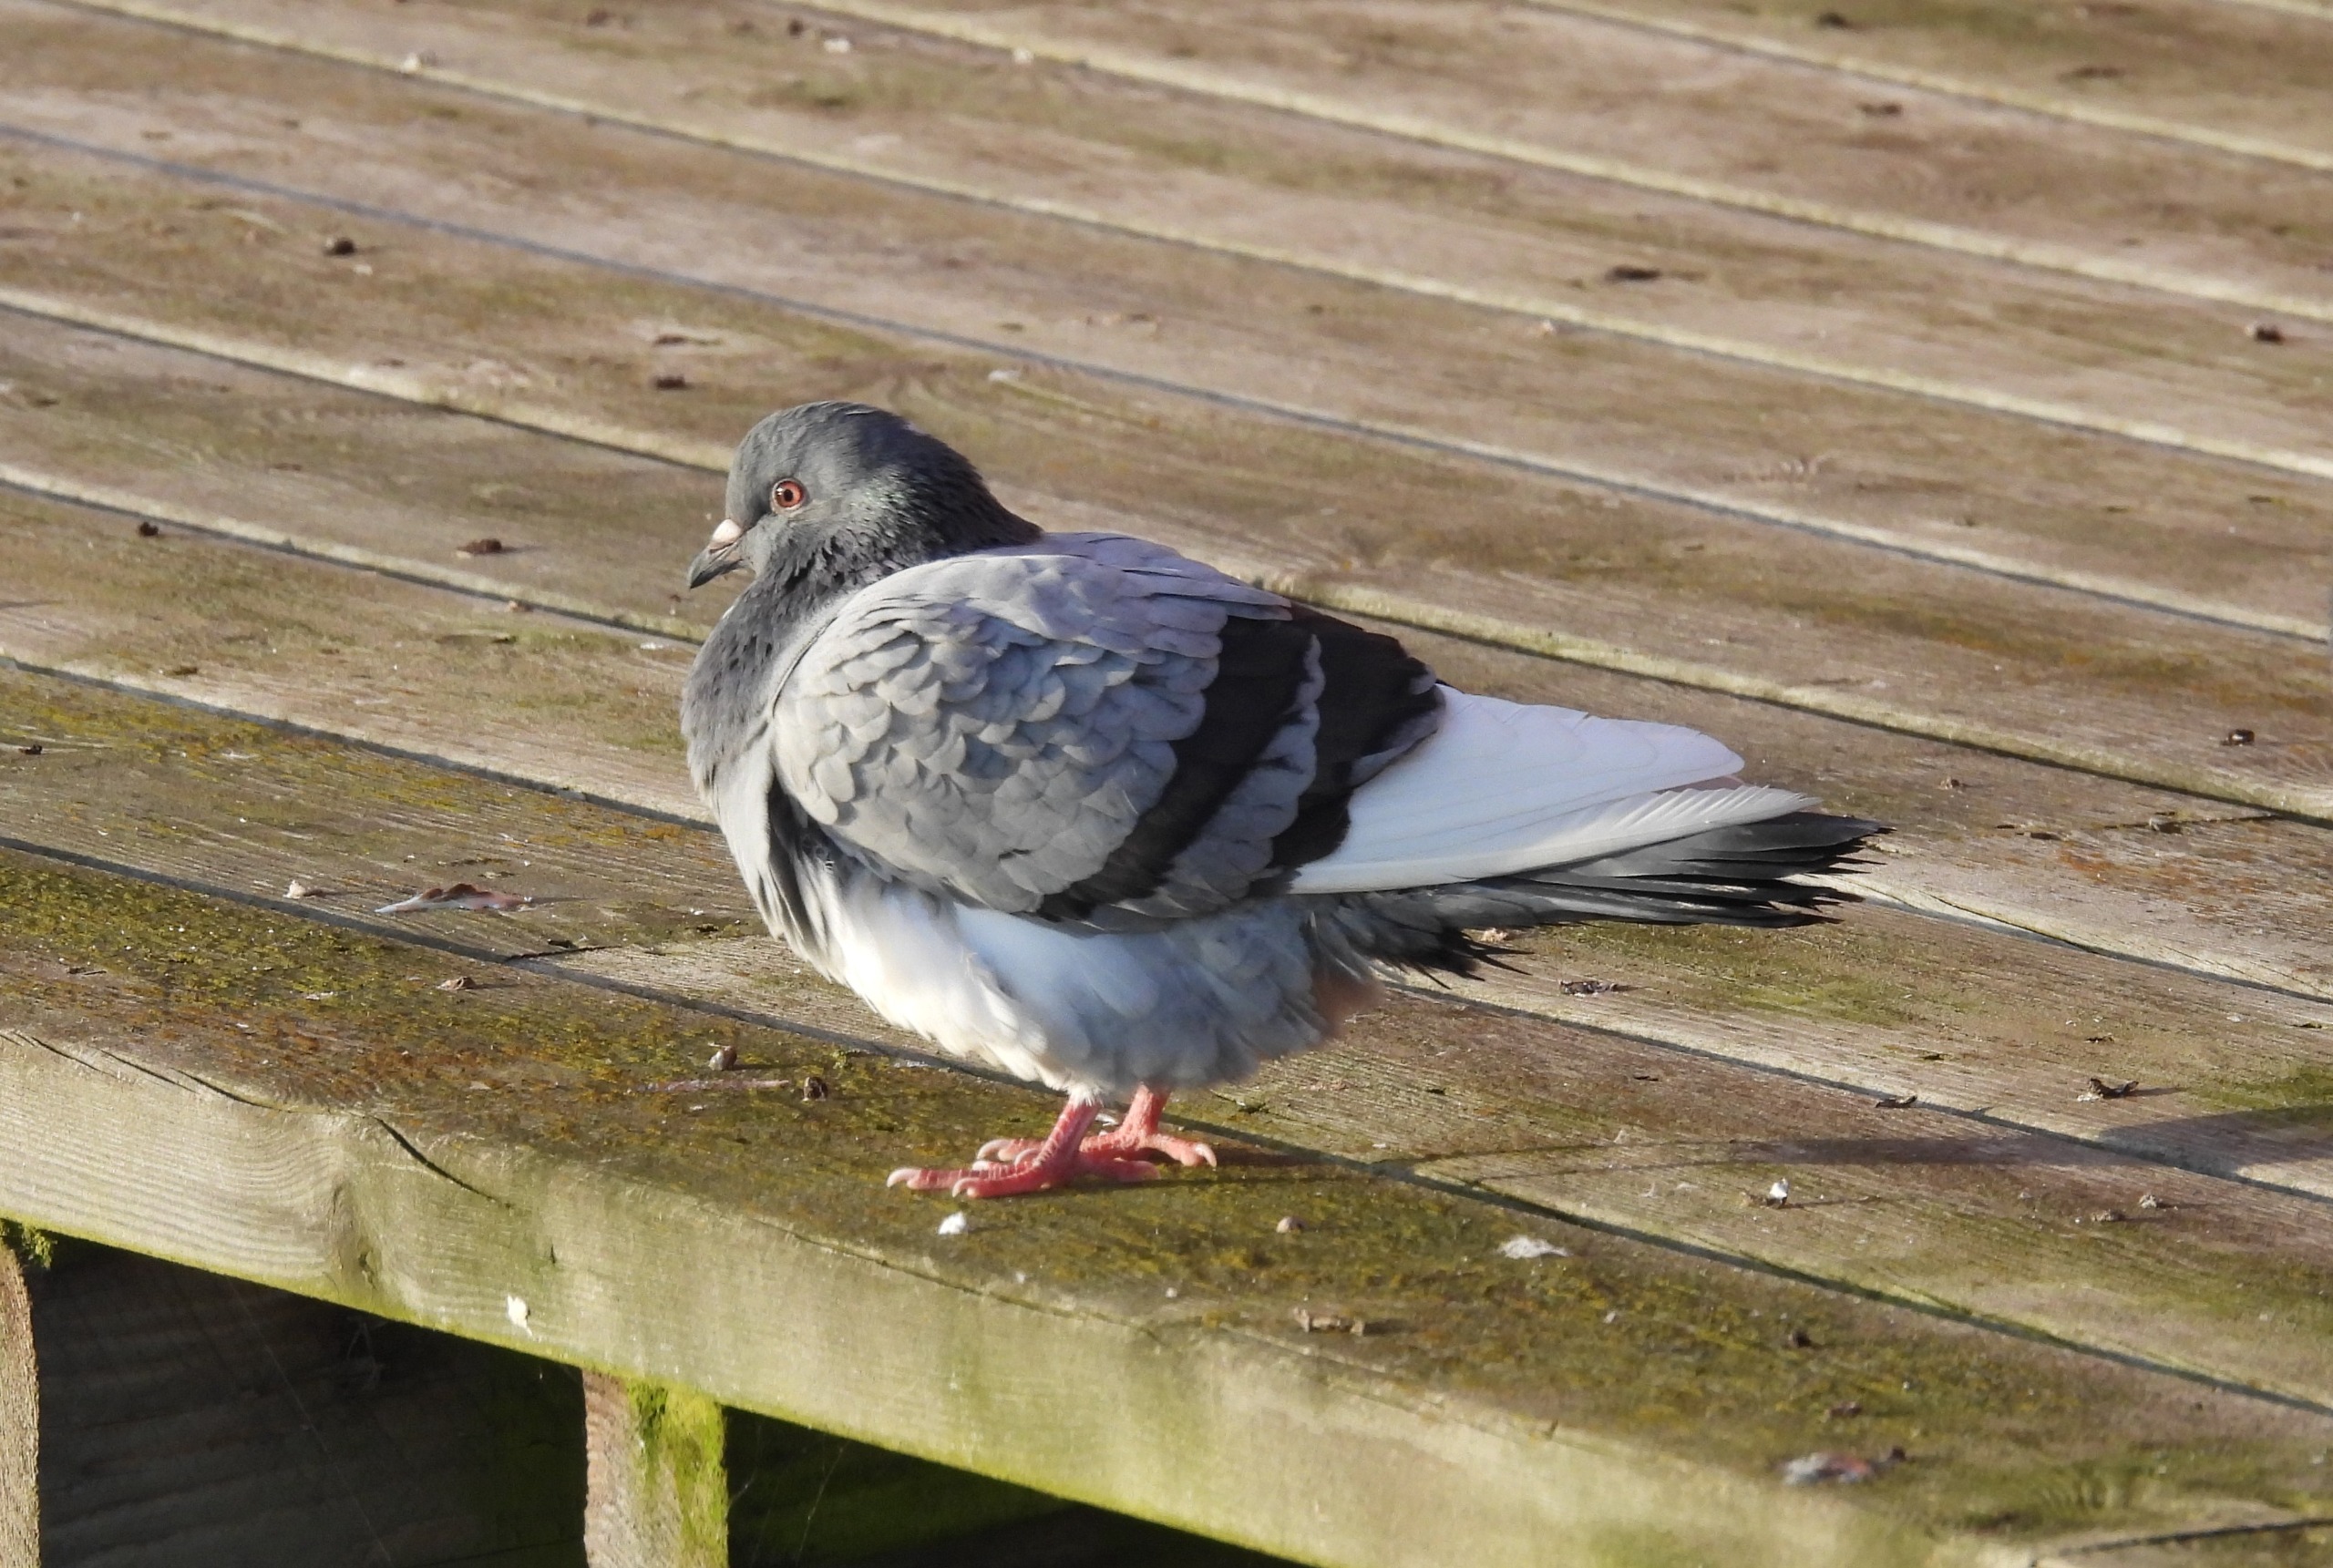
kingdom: Animalia
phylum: Chordata
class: Aves
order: Columbiformes
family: Columbidae
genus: Columba
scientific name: Columba livia
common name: Klippedue
